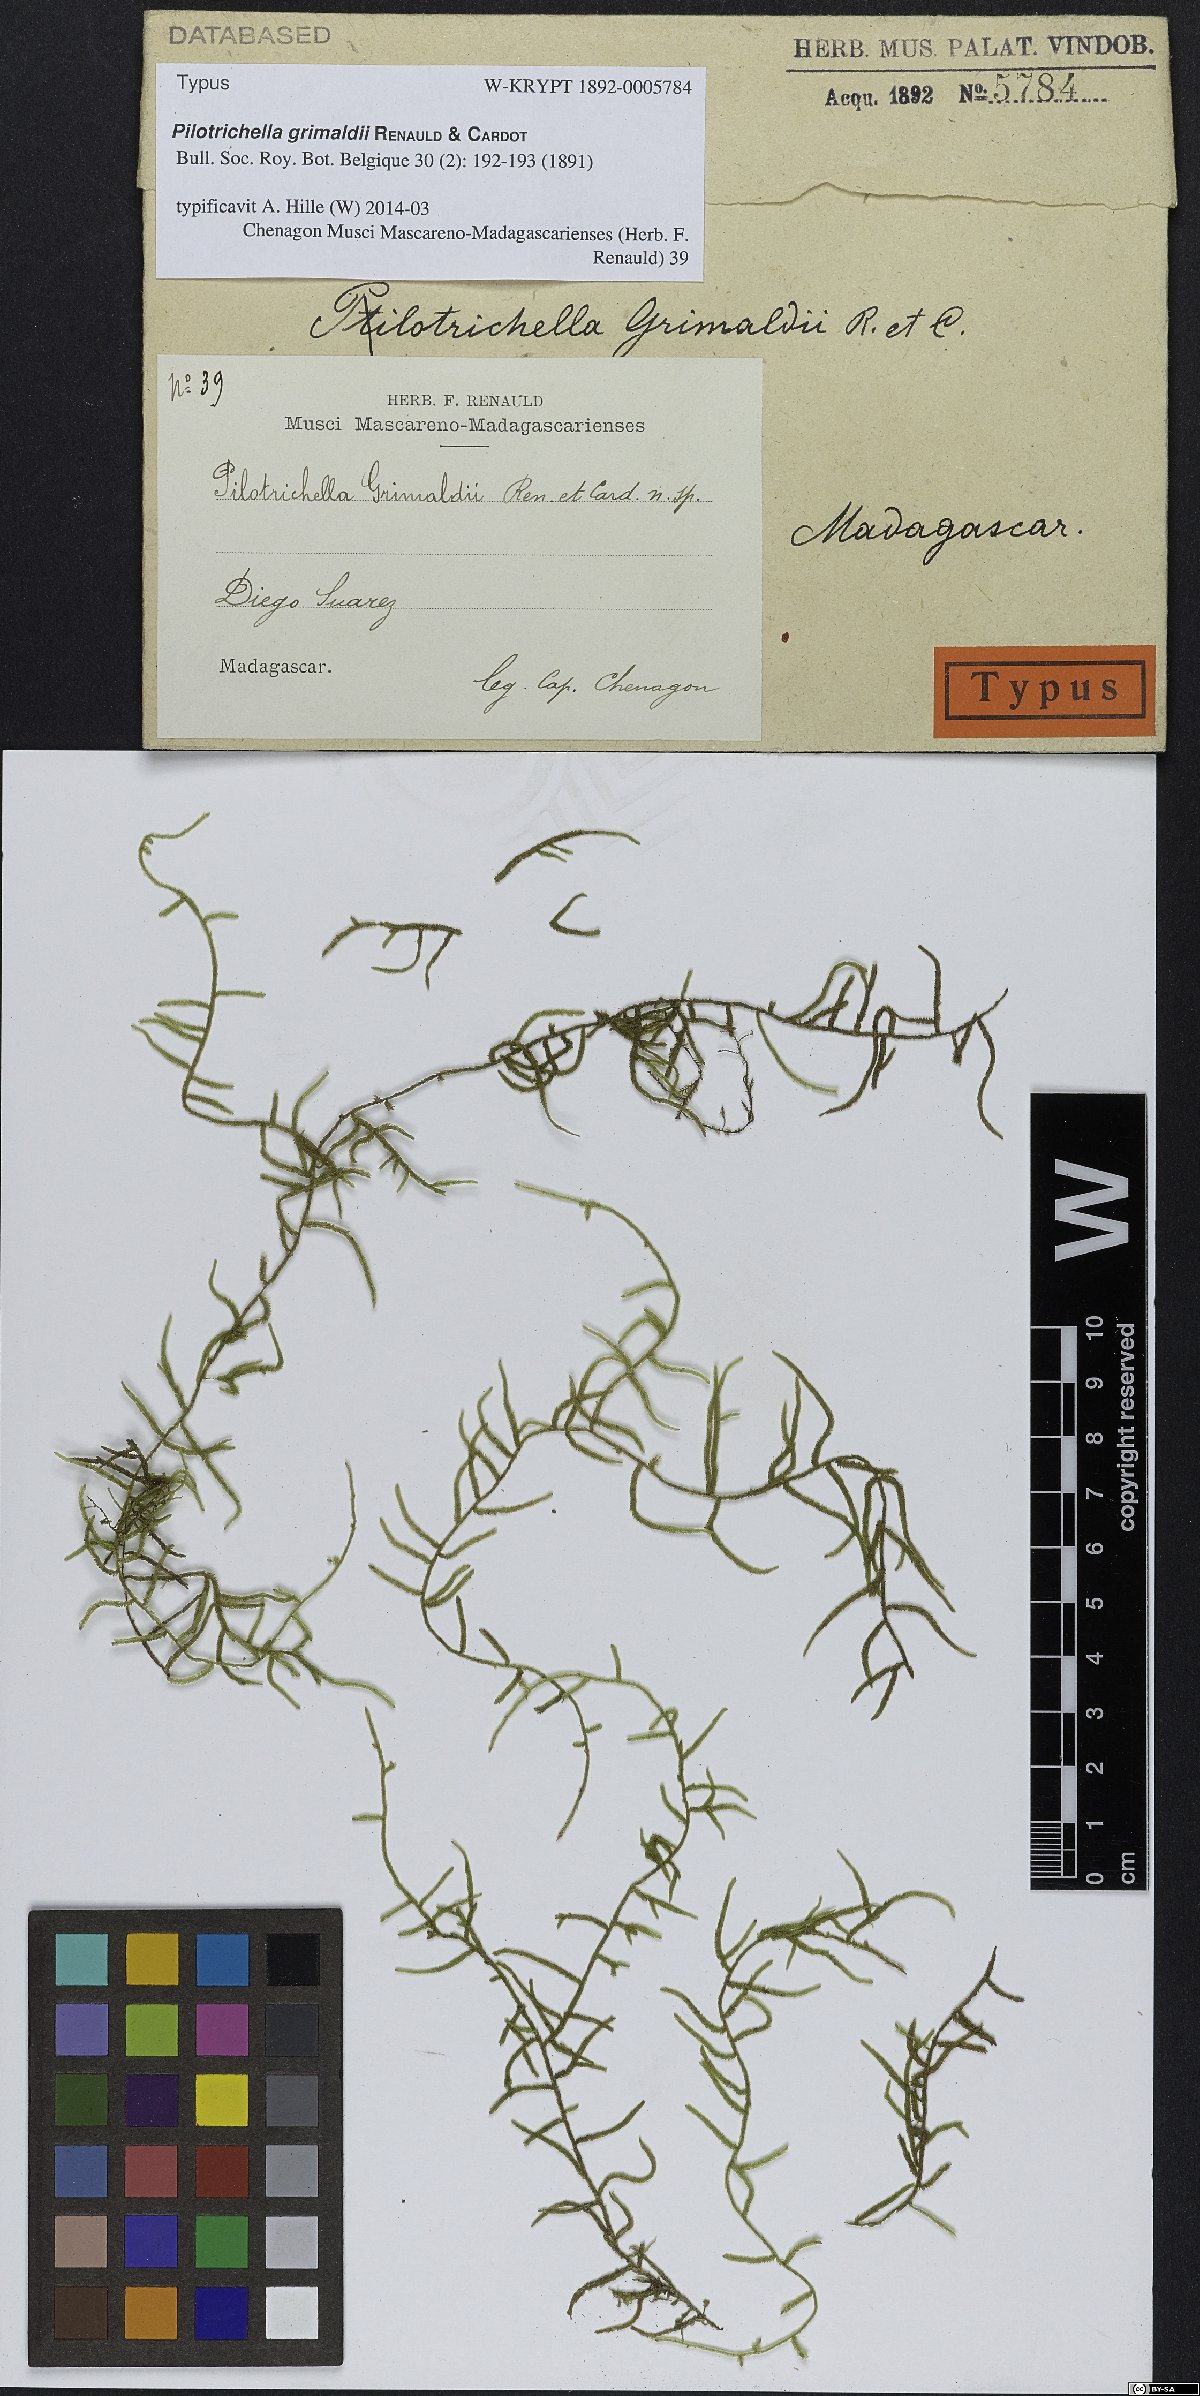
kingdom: Plantae
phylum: Bryophyta
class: Bryopsida
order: Hypnales
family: Orthostichellaceae
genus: Orthostichella
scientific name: Orthostichella versicolor
